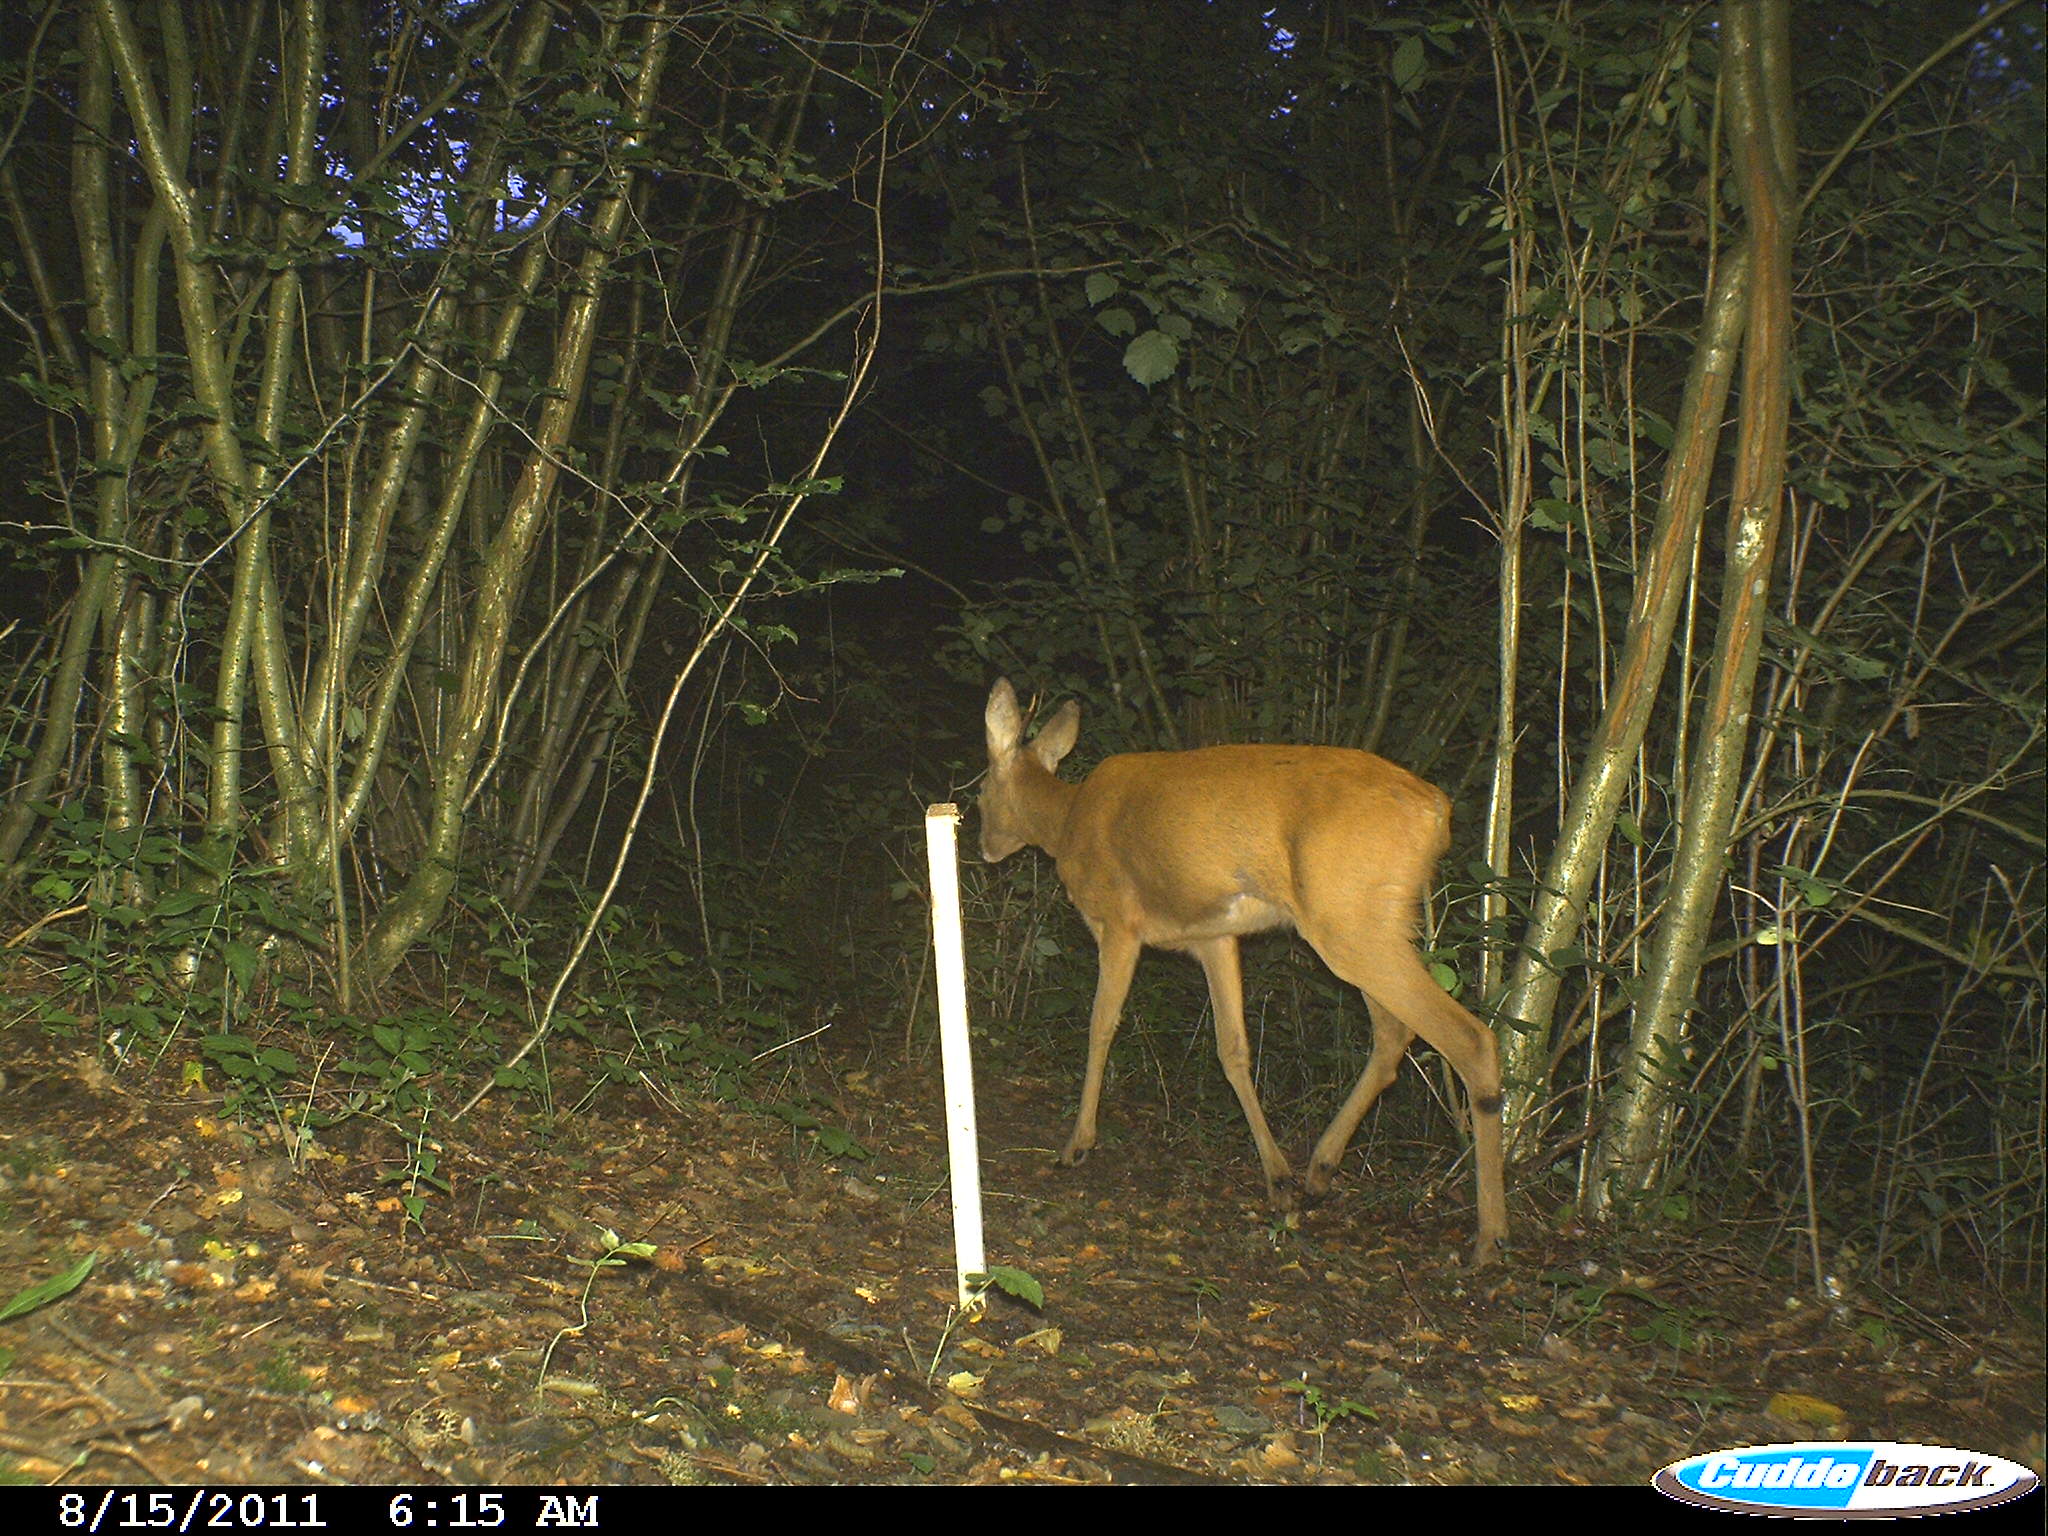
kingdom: Animalia
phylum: Chordata
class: Mammalia
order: Artiodactyla
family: Cervidae
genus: Capreolus
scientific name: Capreolus capreolus
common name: Western roe deer
